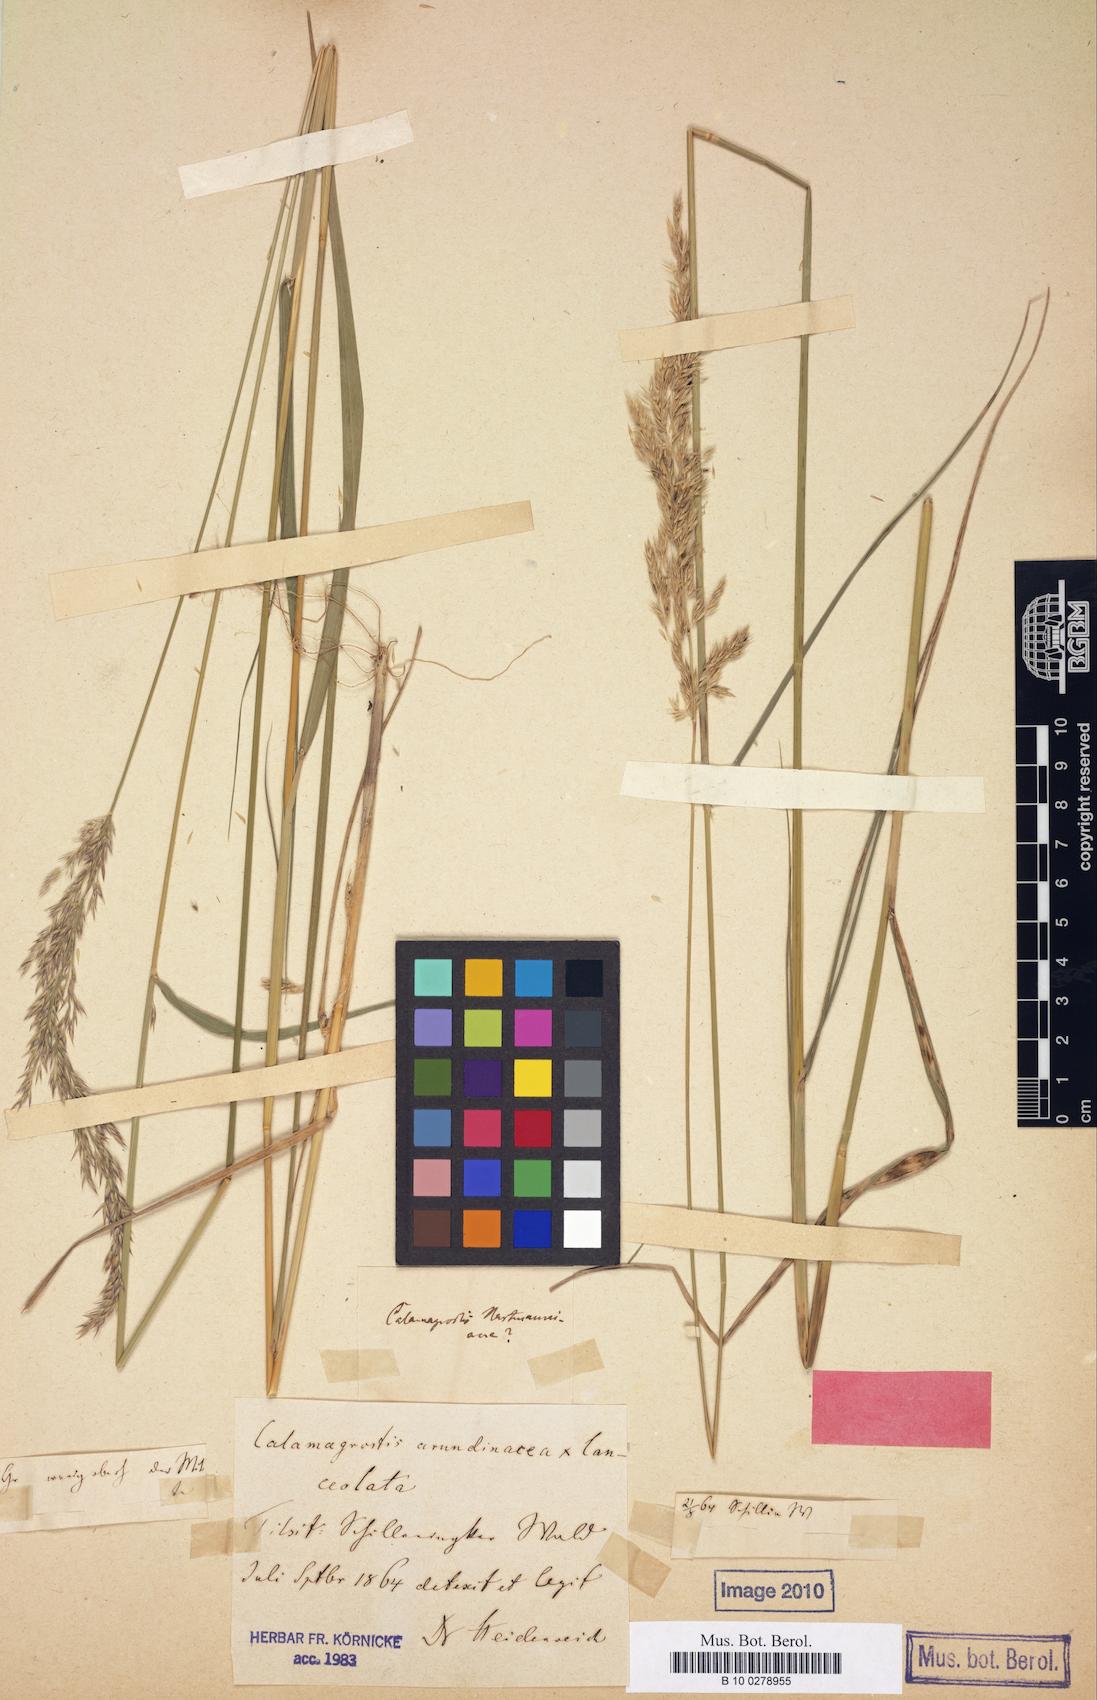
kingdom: Plantae
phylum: Tracheophyta
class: Liliopsida
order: Poales
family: Poaceae
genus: Calamagrostis
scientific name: Calamagrostis villosa
